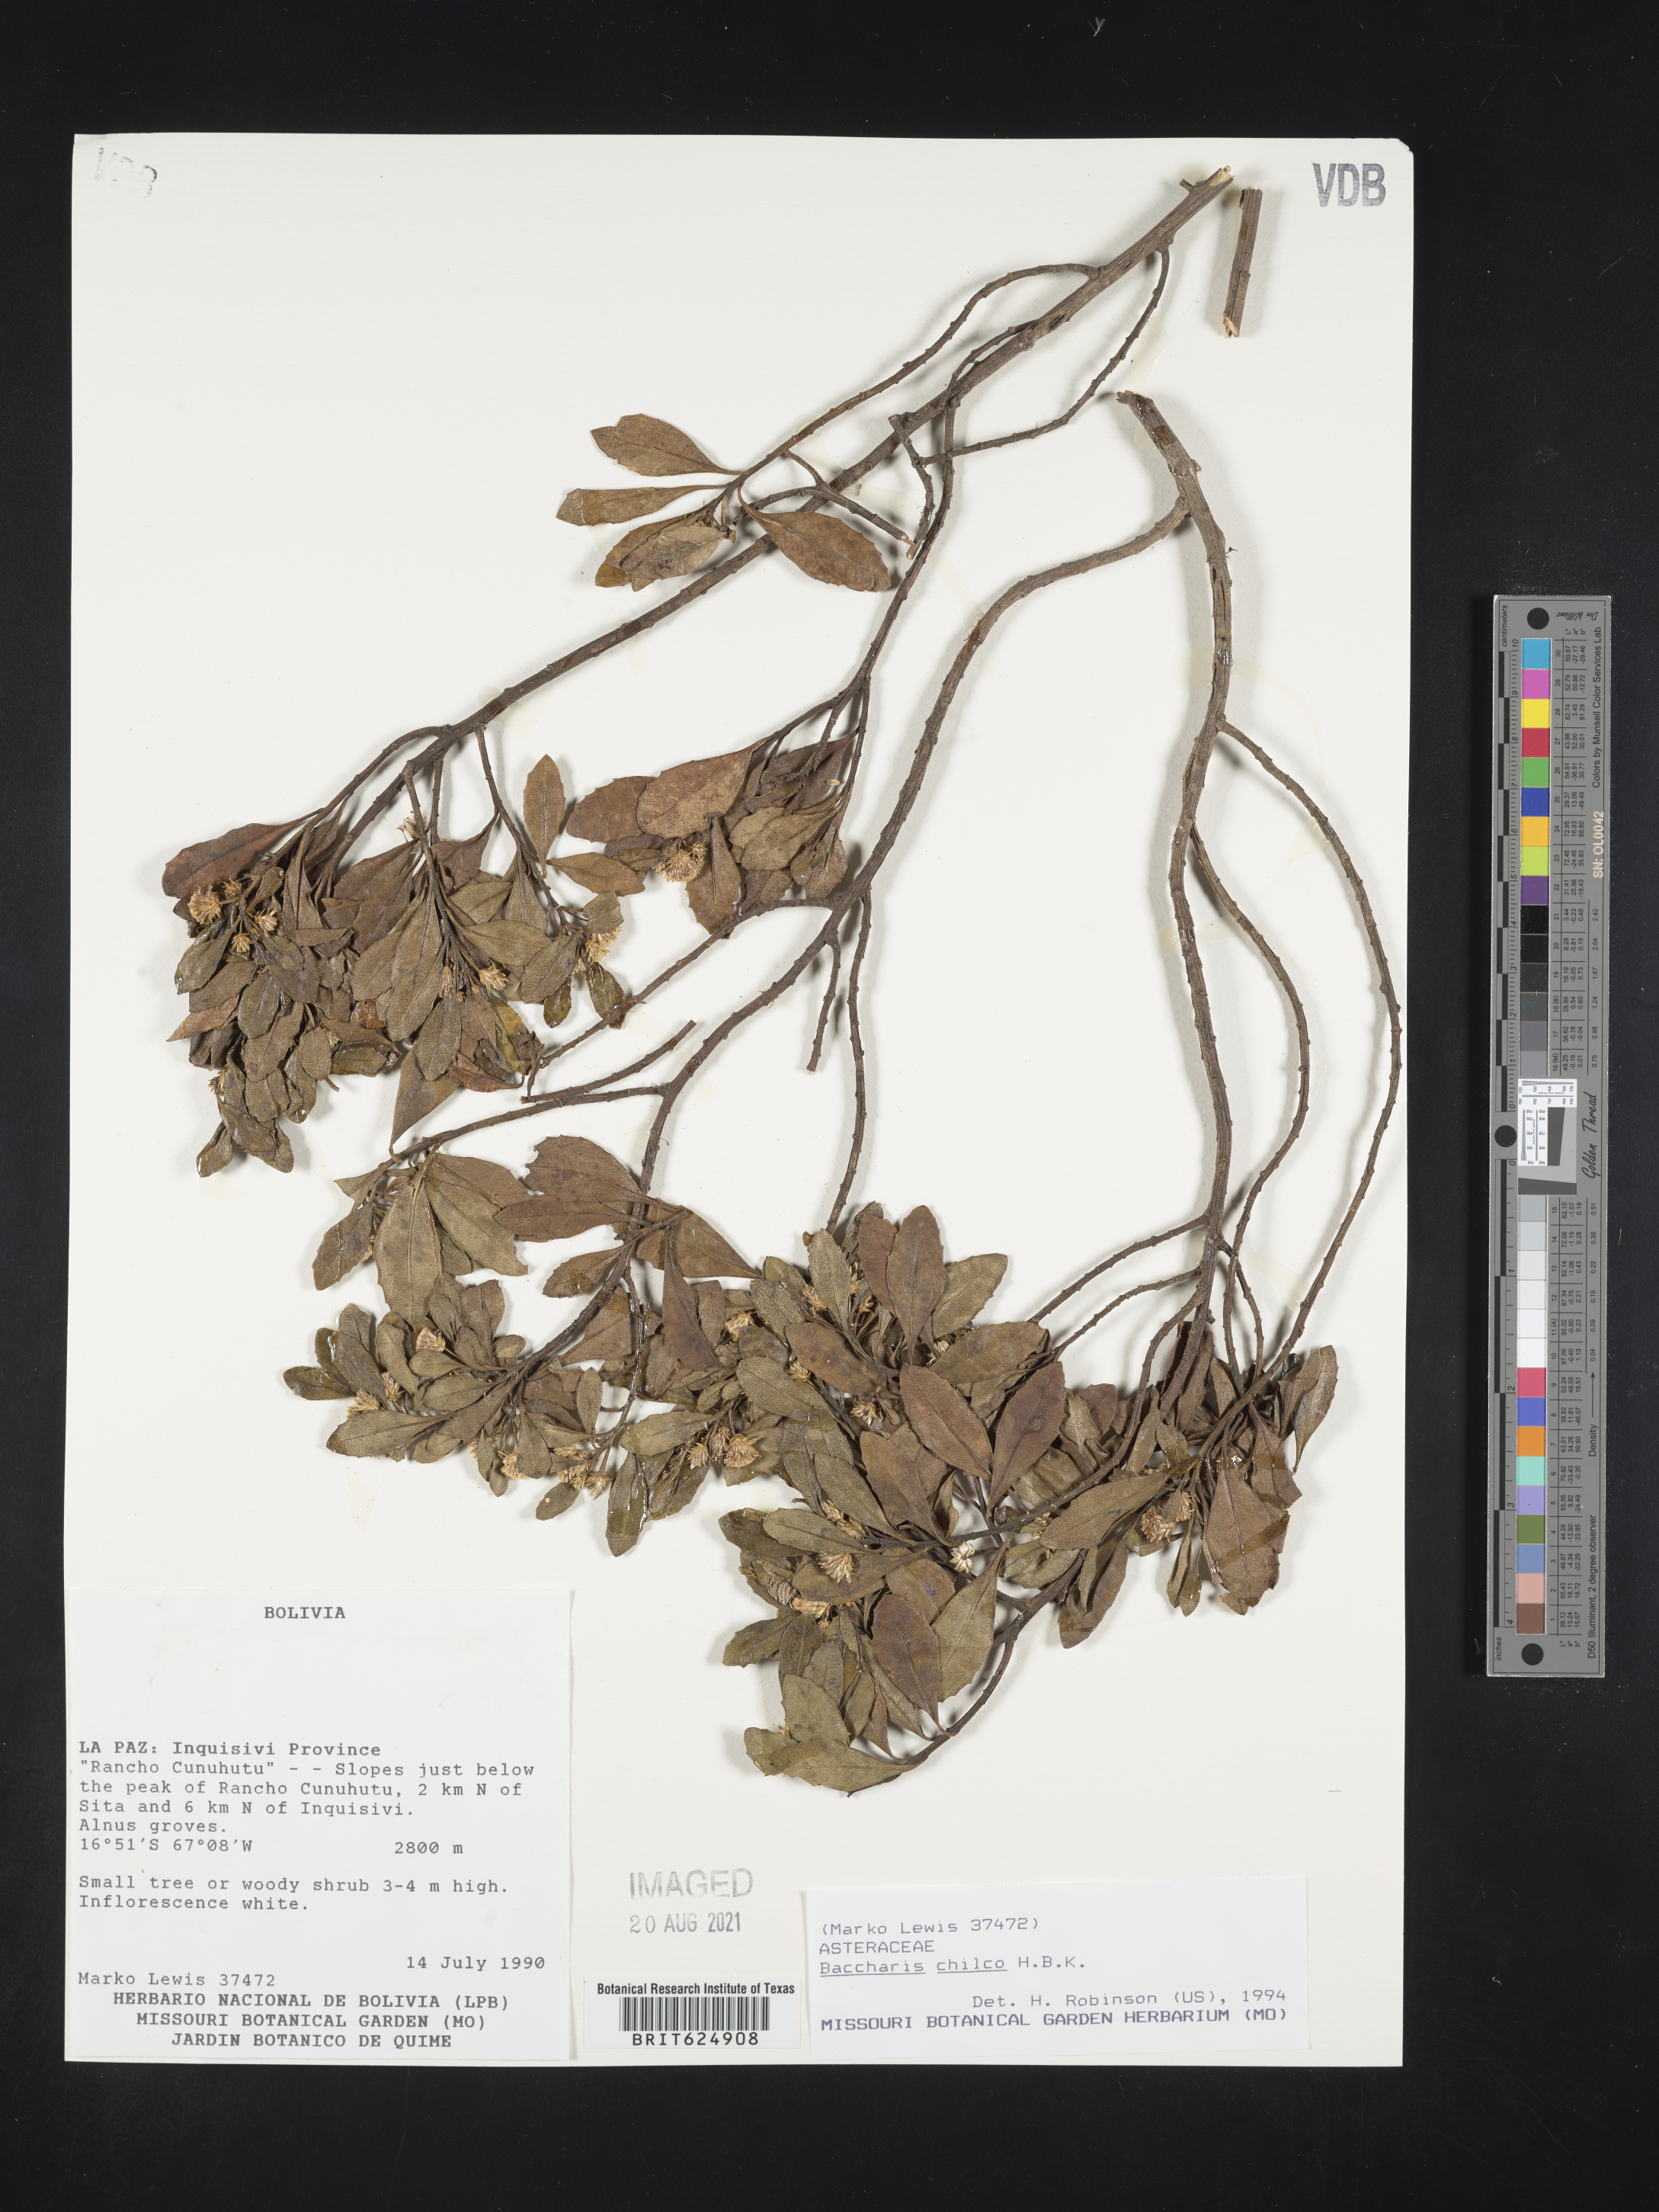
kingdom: Plantae
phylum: Tracheophyta
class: Magnoliopsida
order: Asterales
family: Asteraceae
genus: Baccharis
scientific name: Baccharis linearifolia
